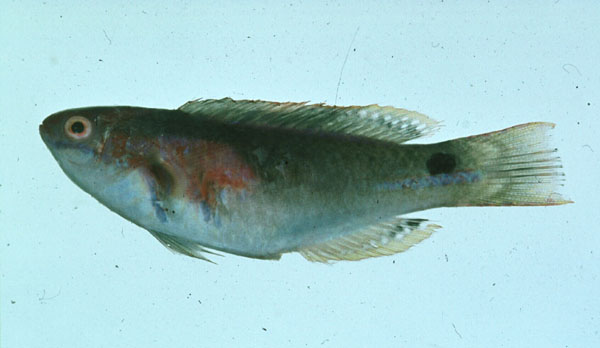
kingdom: Animalia
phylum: Chordata
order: Perciformes
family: Labridae
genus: Cirrhilabrus
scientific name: Cirrhilabrus exquisitus
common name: Exquisite wrasse
